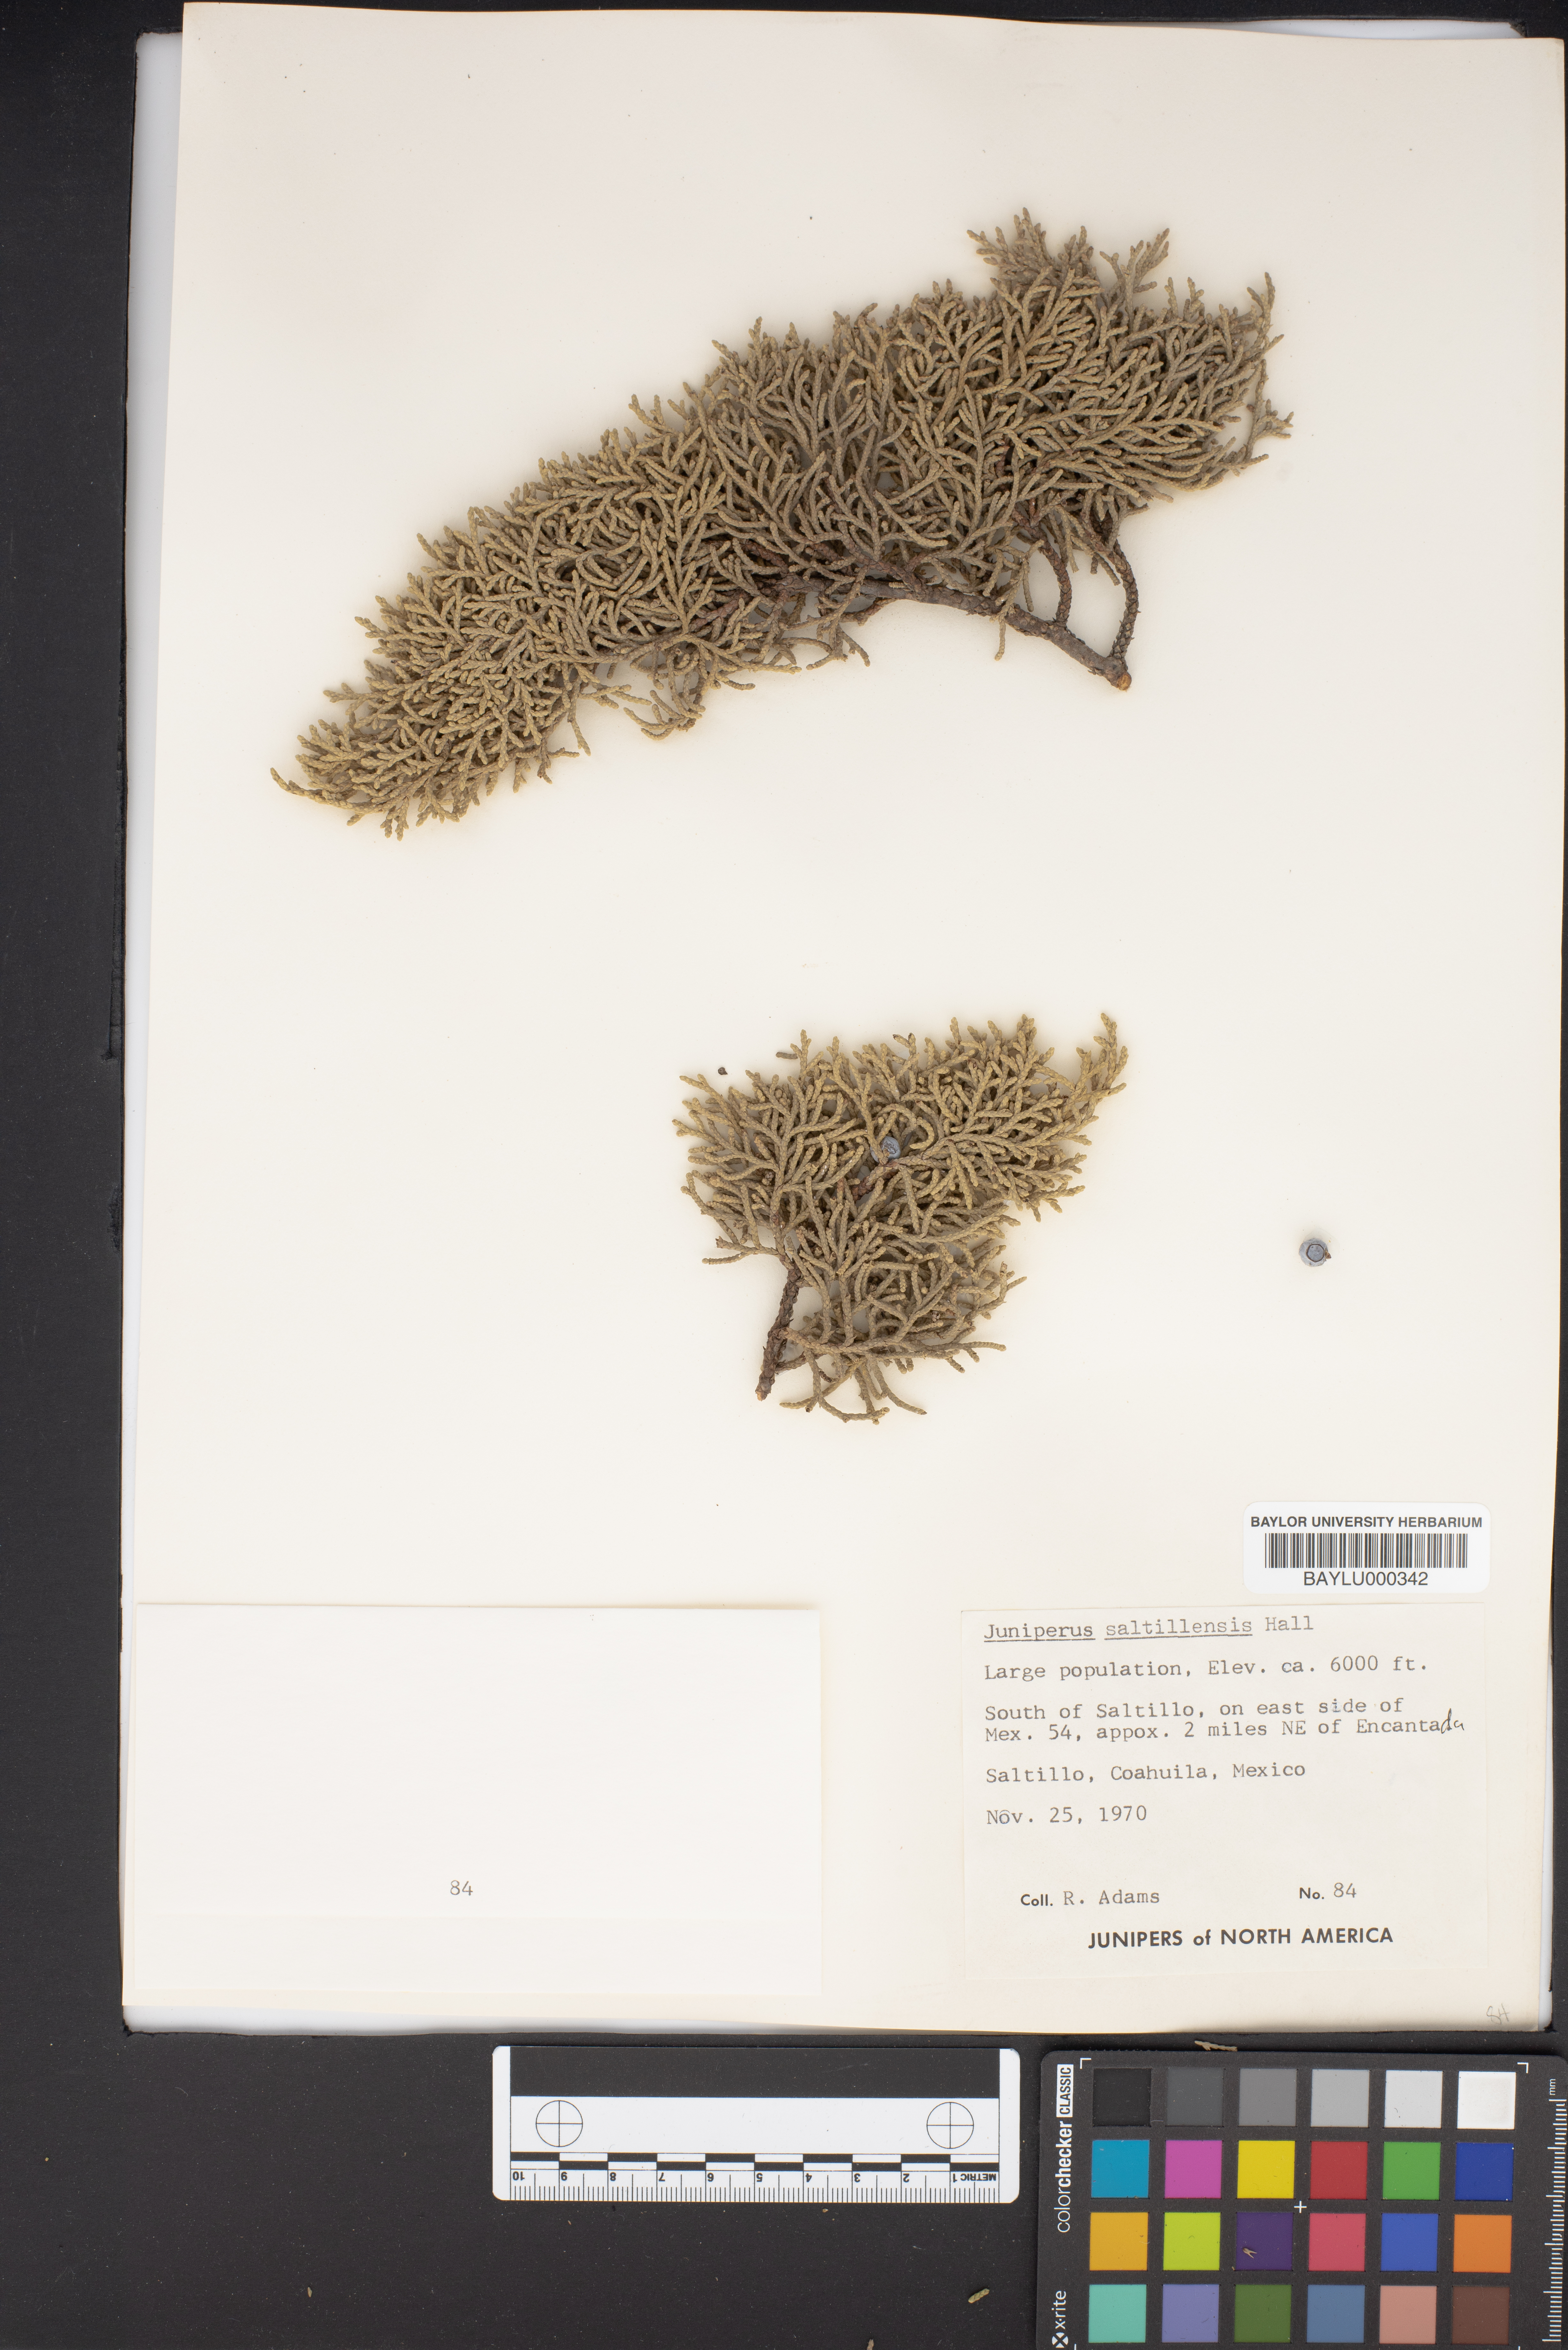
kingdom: Plantae
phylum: Tracheophyta
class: Pinopsida
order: Pinales
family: Cupressaceae
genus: Juniperus
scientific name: Juniperus saltillensis
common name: Saltillo juniper
